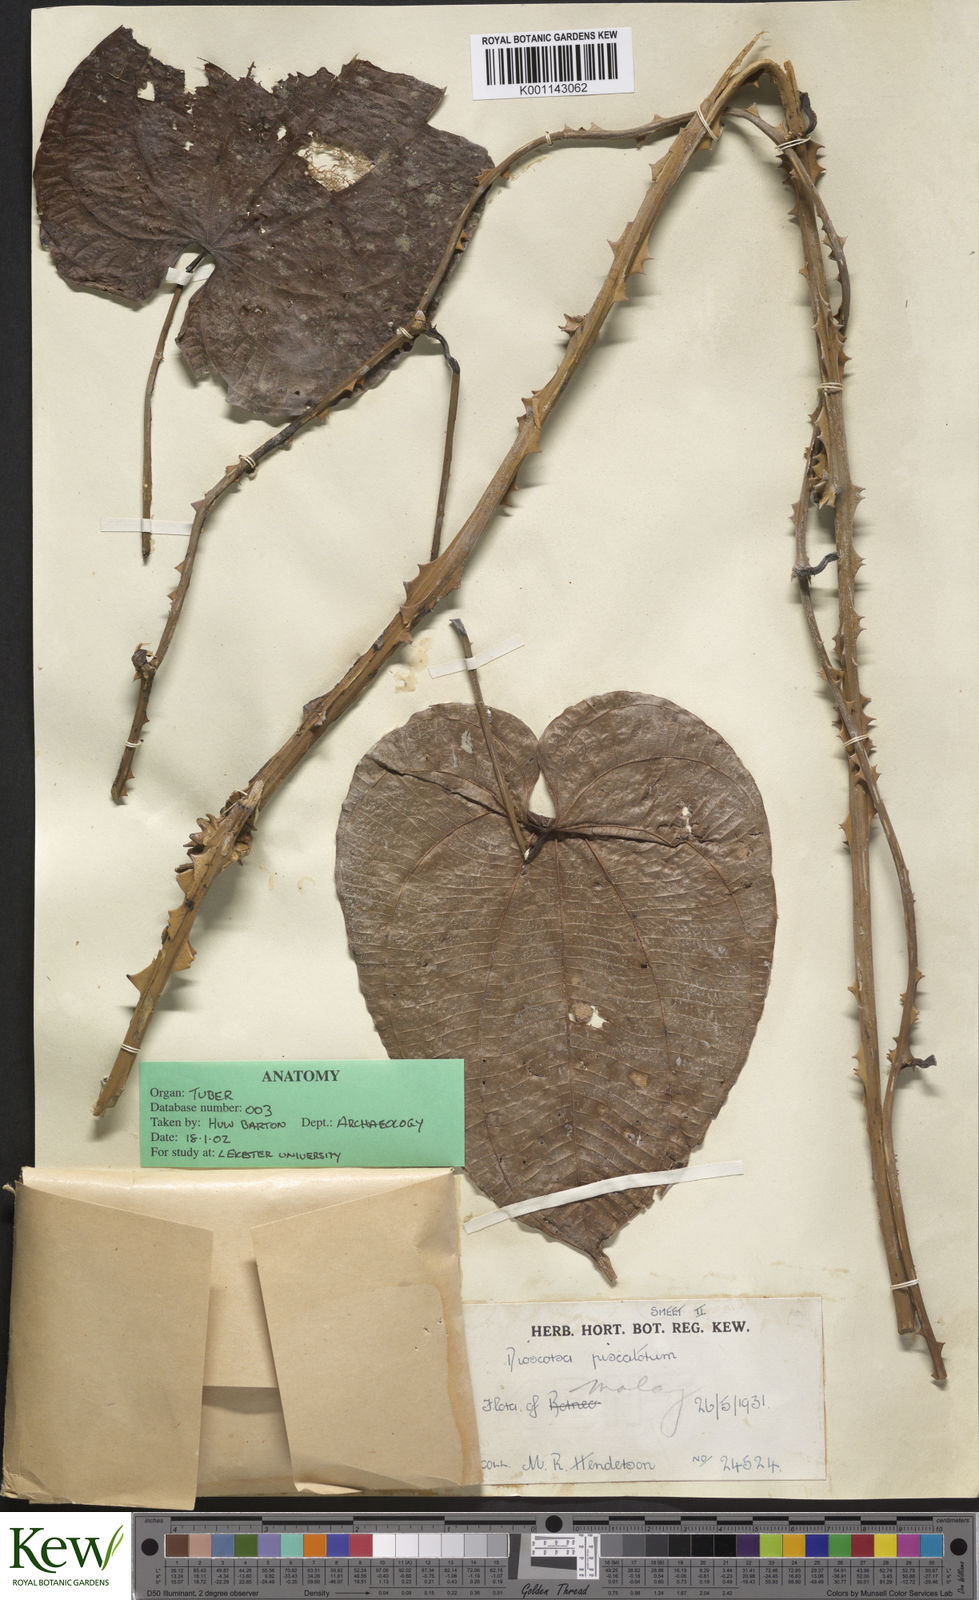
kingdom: Plantae
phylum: Tracheophyta
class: Liliopsida
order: Dioscoreales
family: Dioscoreaceae
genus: Dioscorea
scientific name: Dioscorea piscatorum
